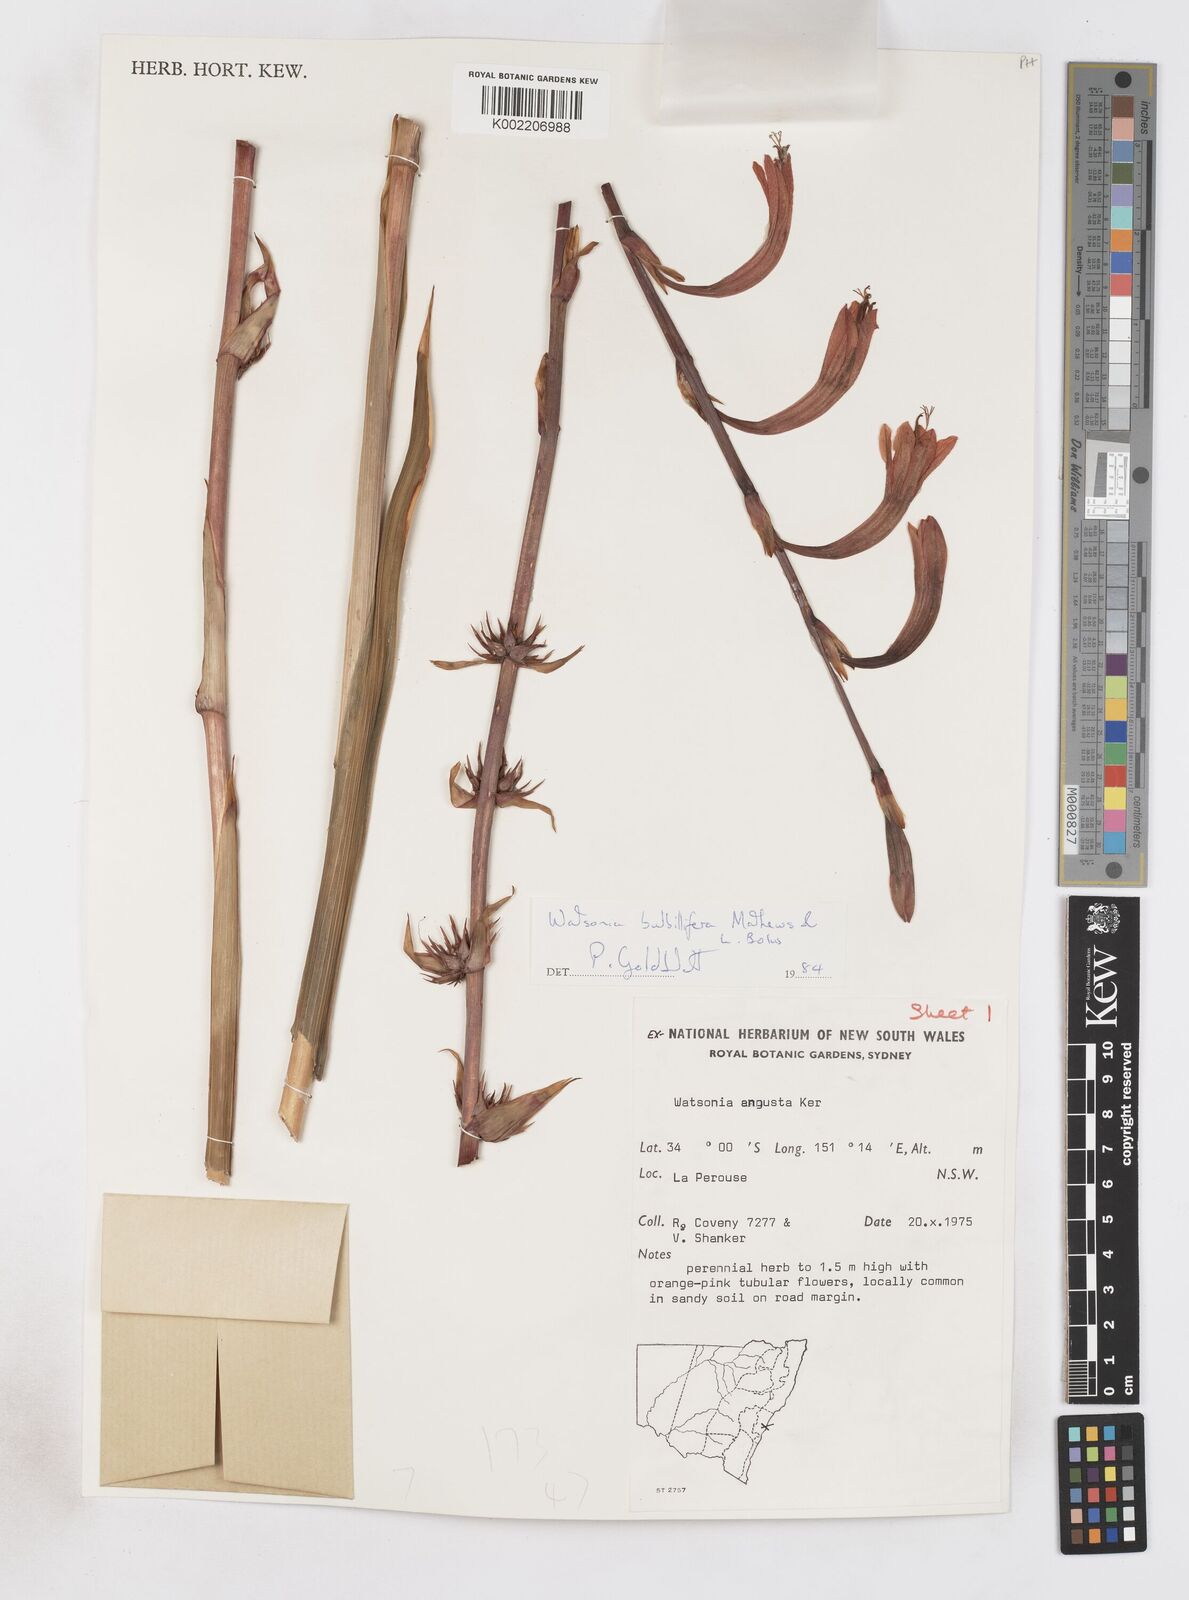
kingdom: Plantae
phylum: Tracheophyta
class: Liliopsida
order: Asparagales
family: Iridaceae
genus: Watsonia
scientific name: Watsonia meriana
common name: Bulbil bugle-lily
